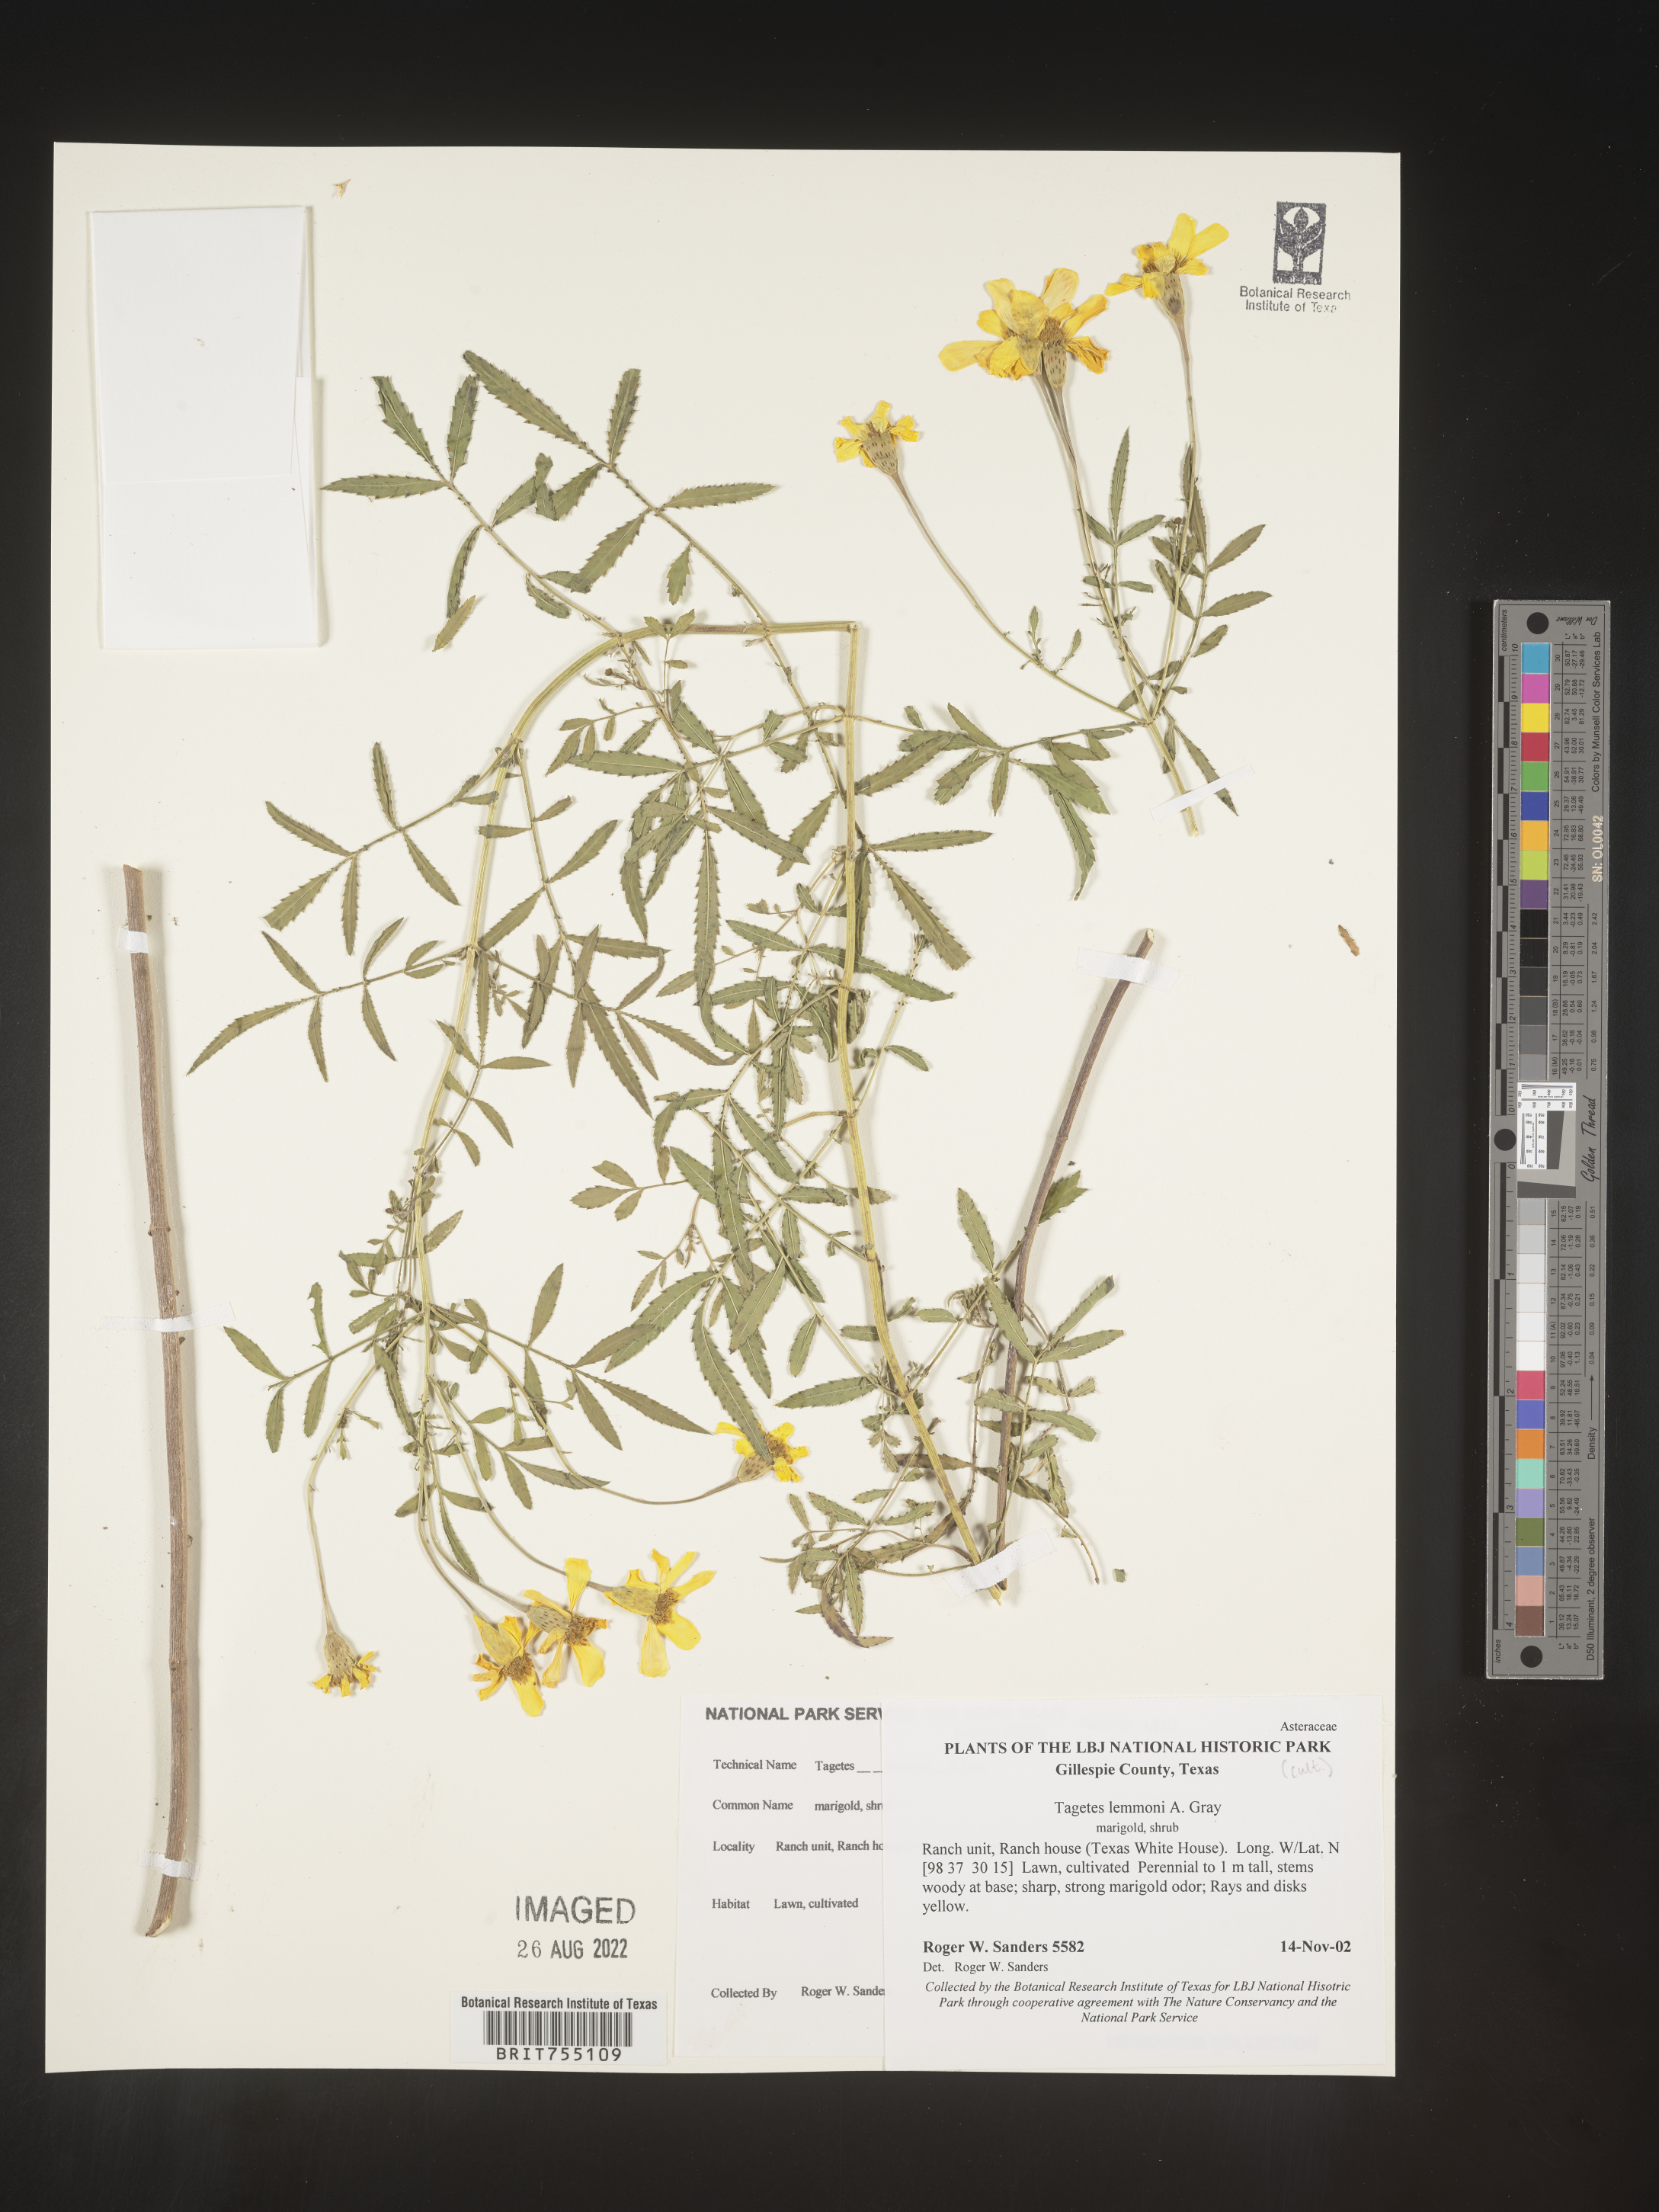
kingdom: Plantae
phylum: Tracheophyta
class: Magnoliopsida
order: Asterales
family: Asteraceae
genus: Tagetes
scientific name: Tagetes
